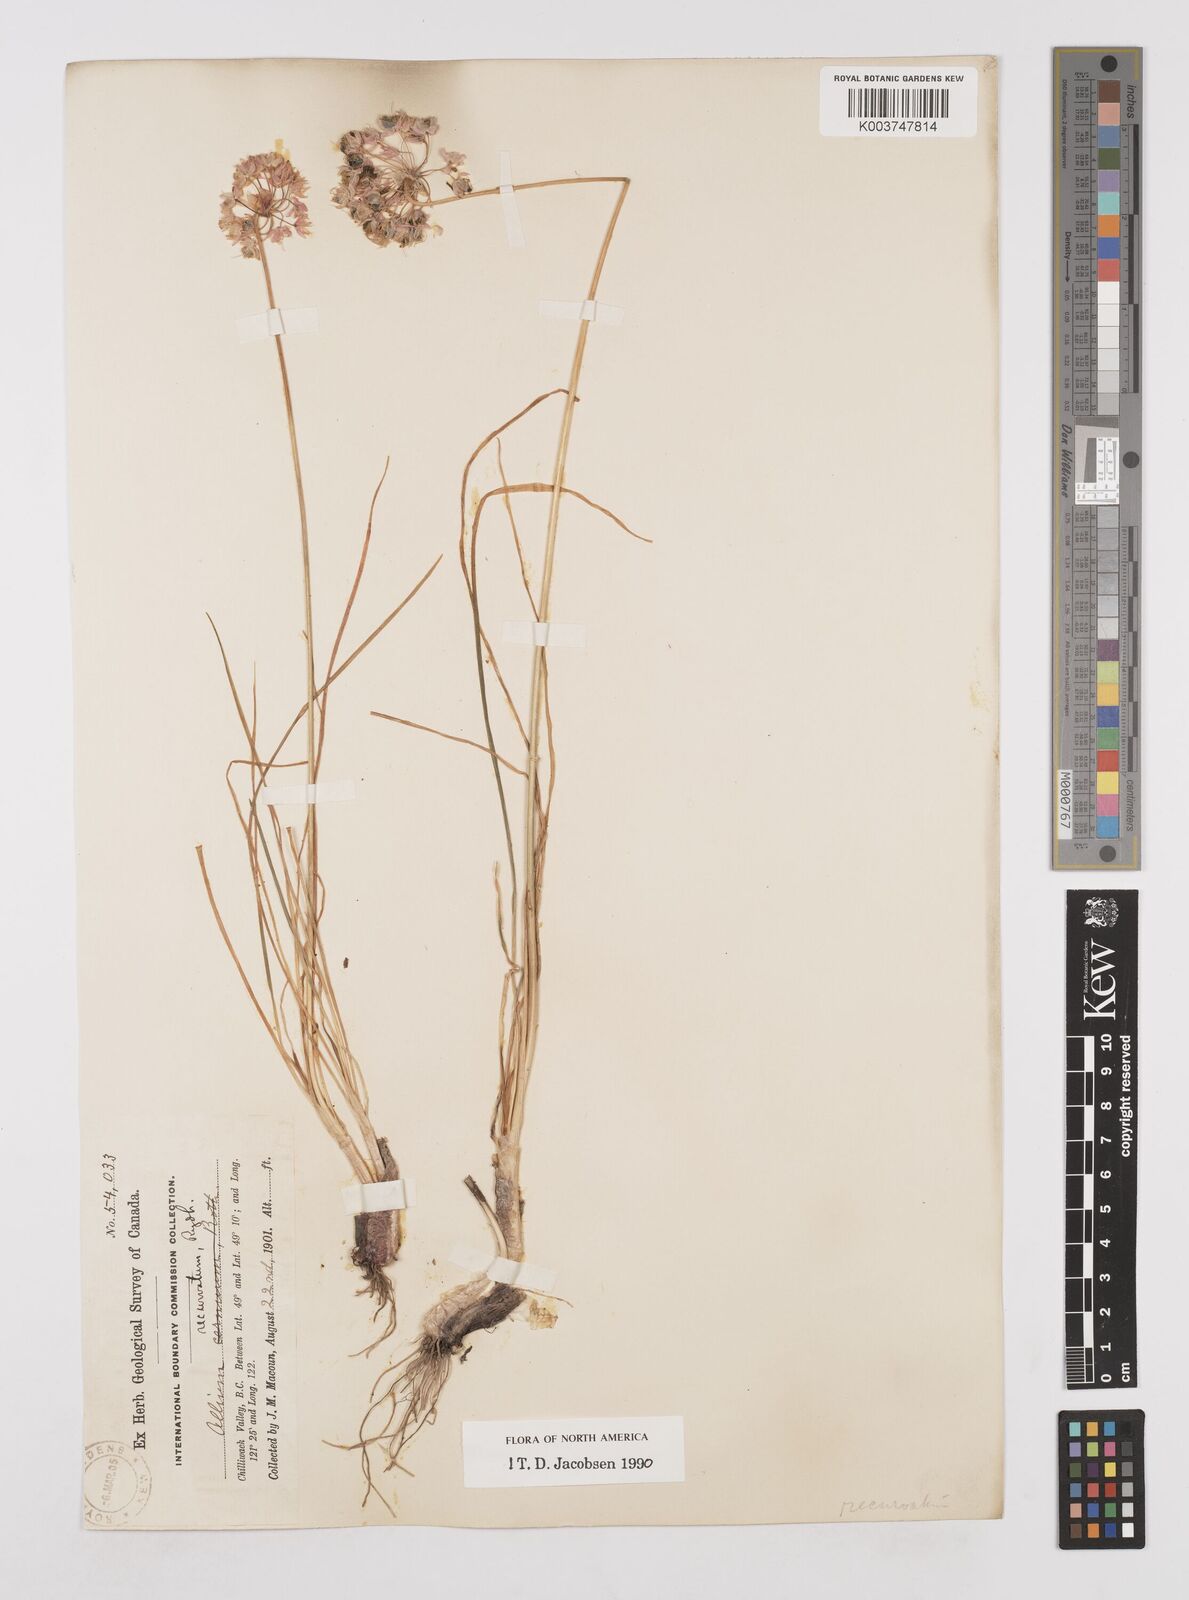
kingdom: Plantae
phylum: Tracheophyta
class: Liliopsida
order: Asparagales
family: Amaryllidaceae
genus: Allium
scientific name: Allium cernuum
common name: Nodding onion
